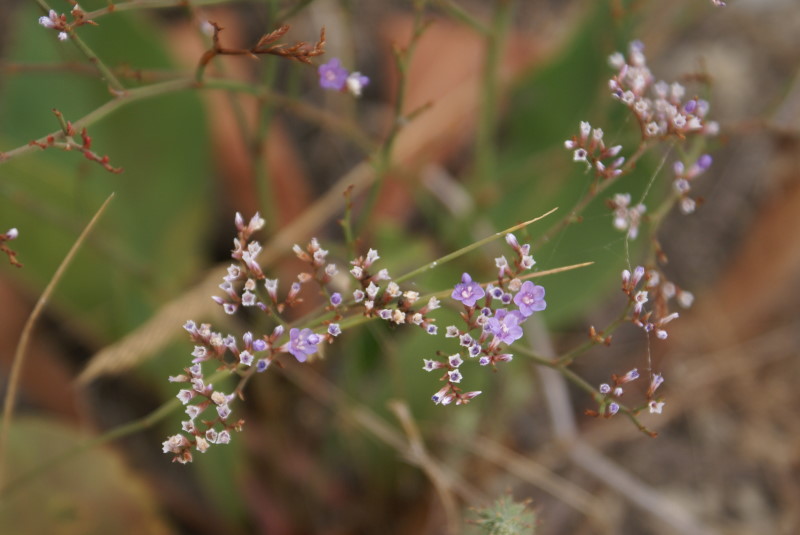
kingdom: Plantae
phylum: Tracheophyta
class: Magnoliopsida
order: Caryophyllales
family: Plumbaginaceae
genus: Goniolimon
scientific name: Goniolimon tataricum
